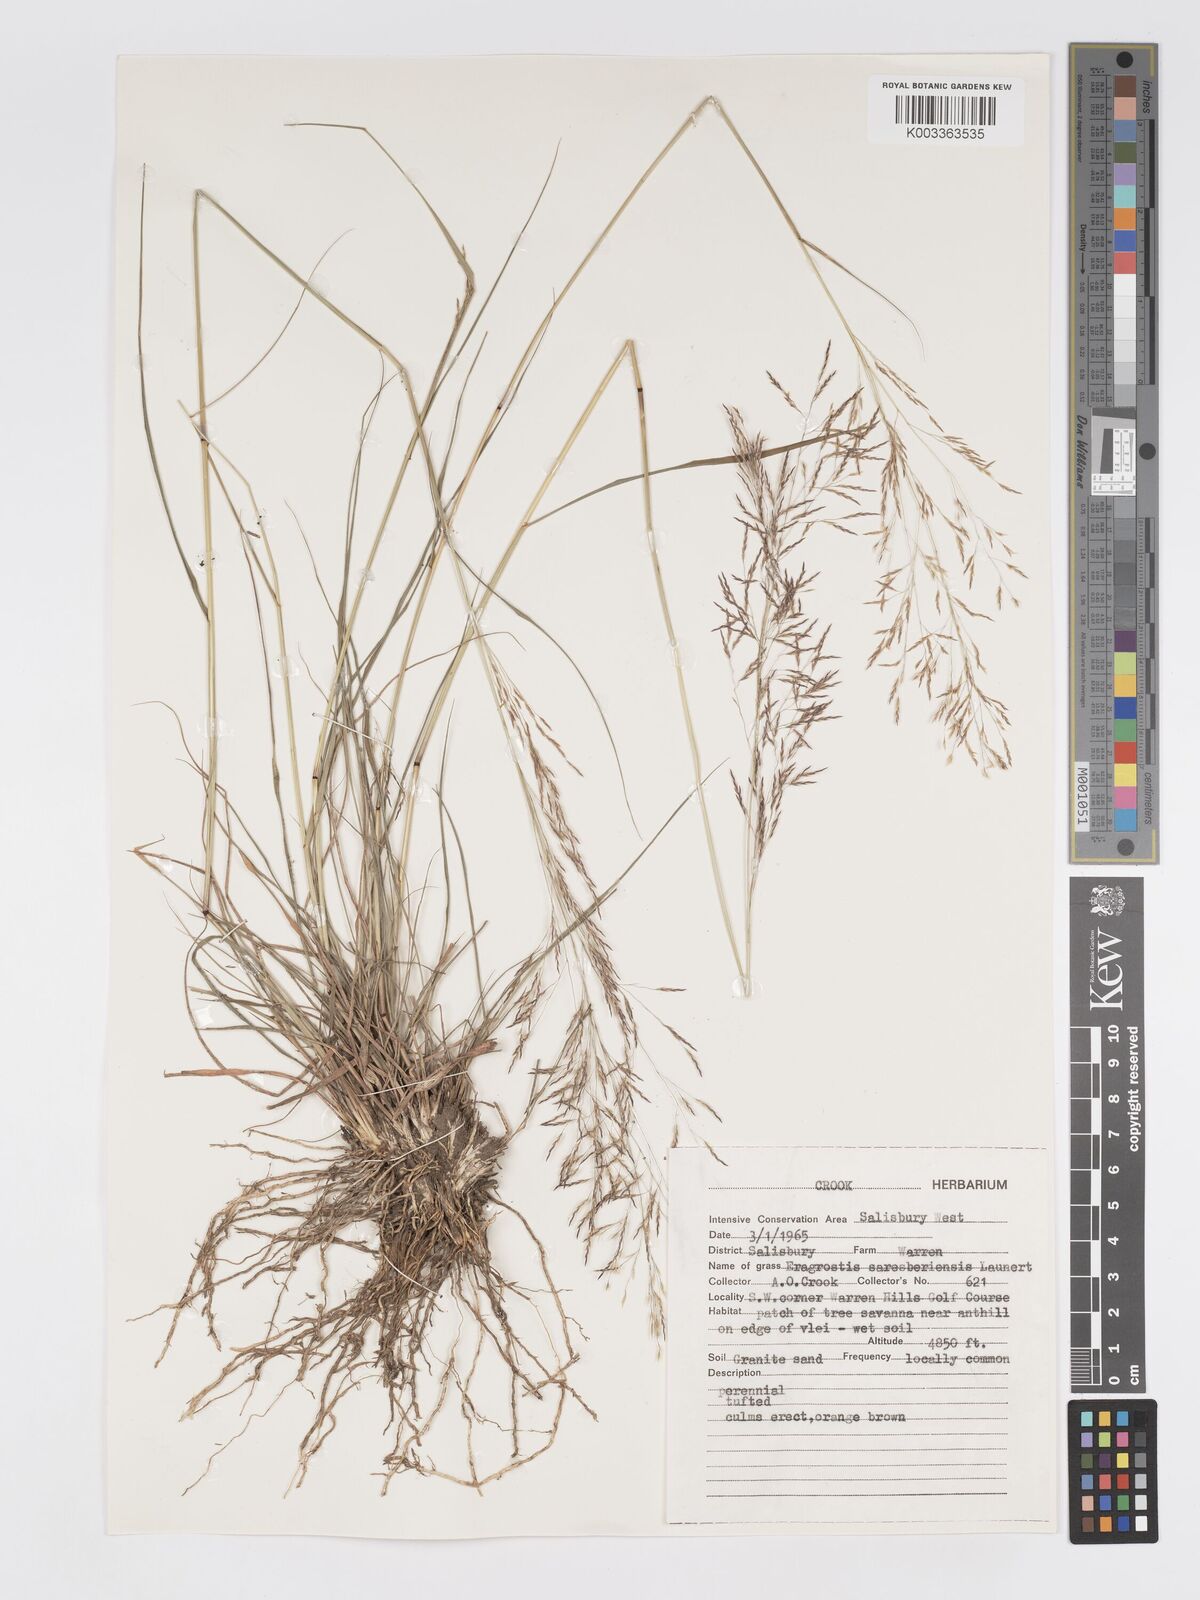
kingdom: Plantae
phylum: Tracheophyta
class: Liliopsida
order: Poales
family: Poaceae
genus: Eragrostis
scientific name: Eragrostis saresberiensis
